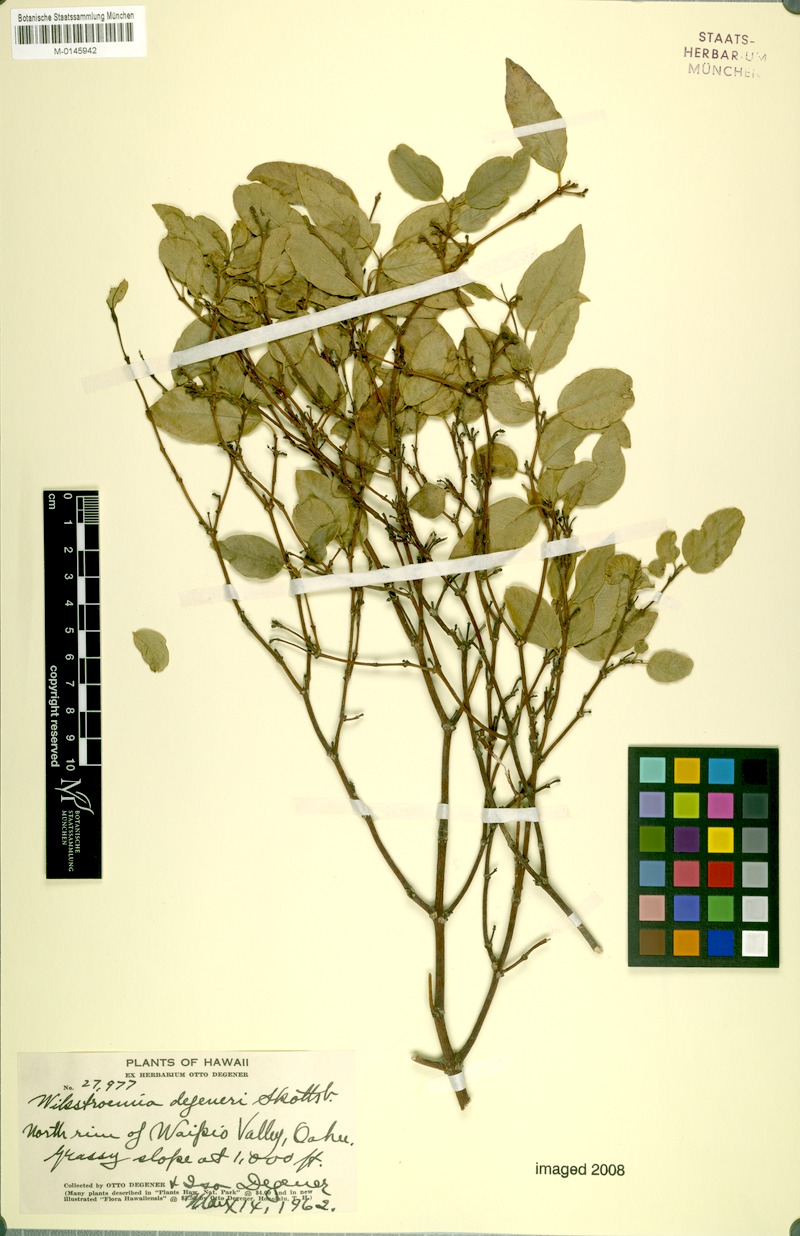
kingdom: Plantae
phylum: Tracheophyta
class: Magnoliopsida
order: Malvales
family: Thymelaeaceae
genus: Wikstroemia
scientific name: Wikstroemia oahuensis
